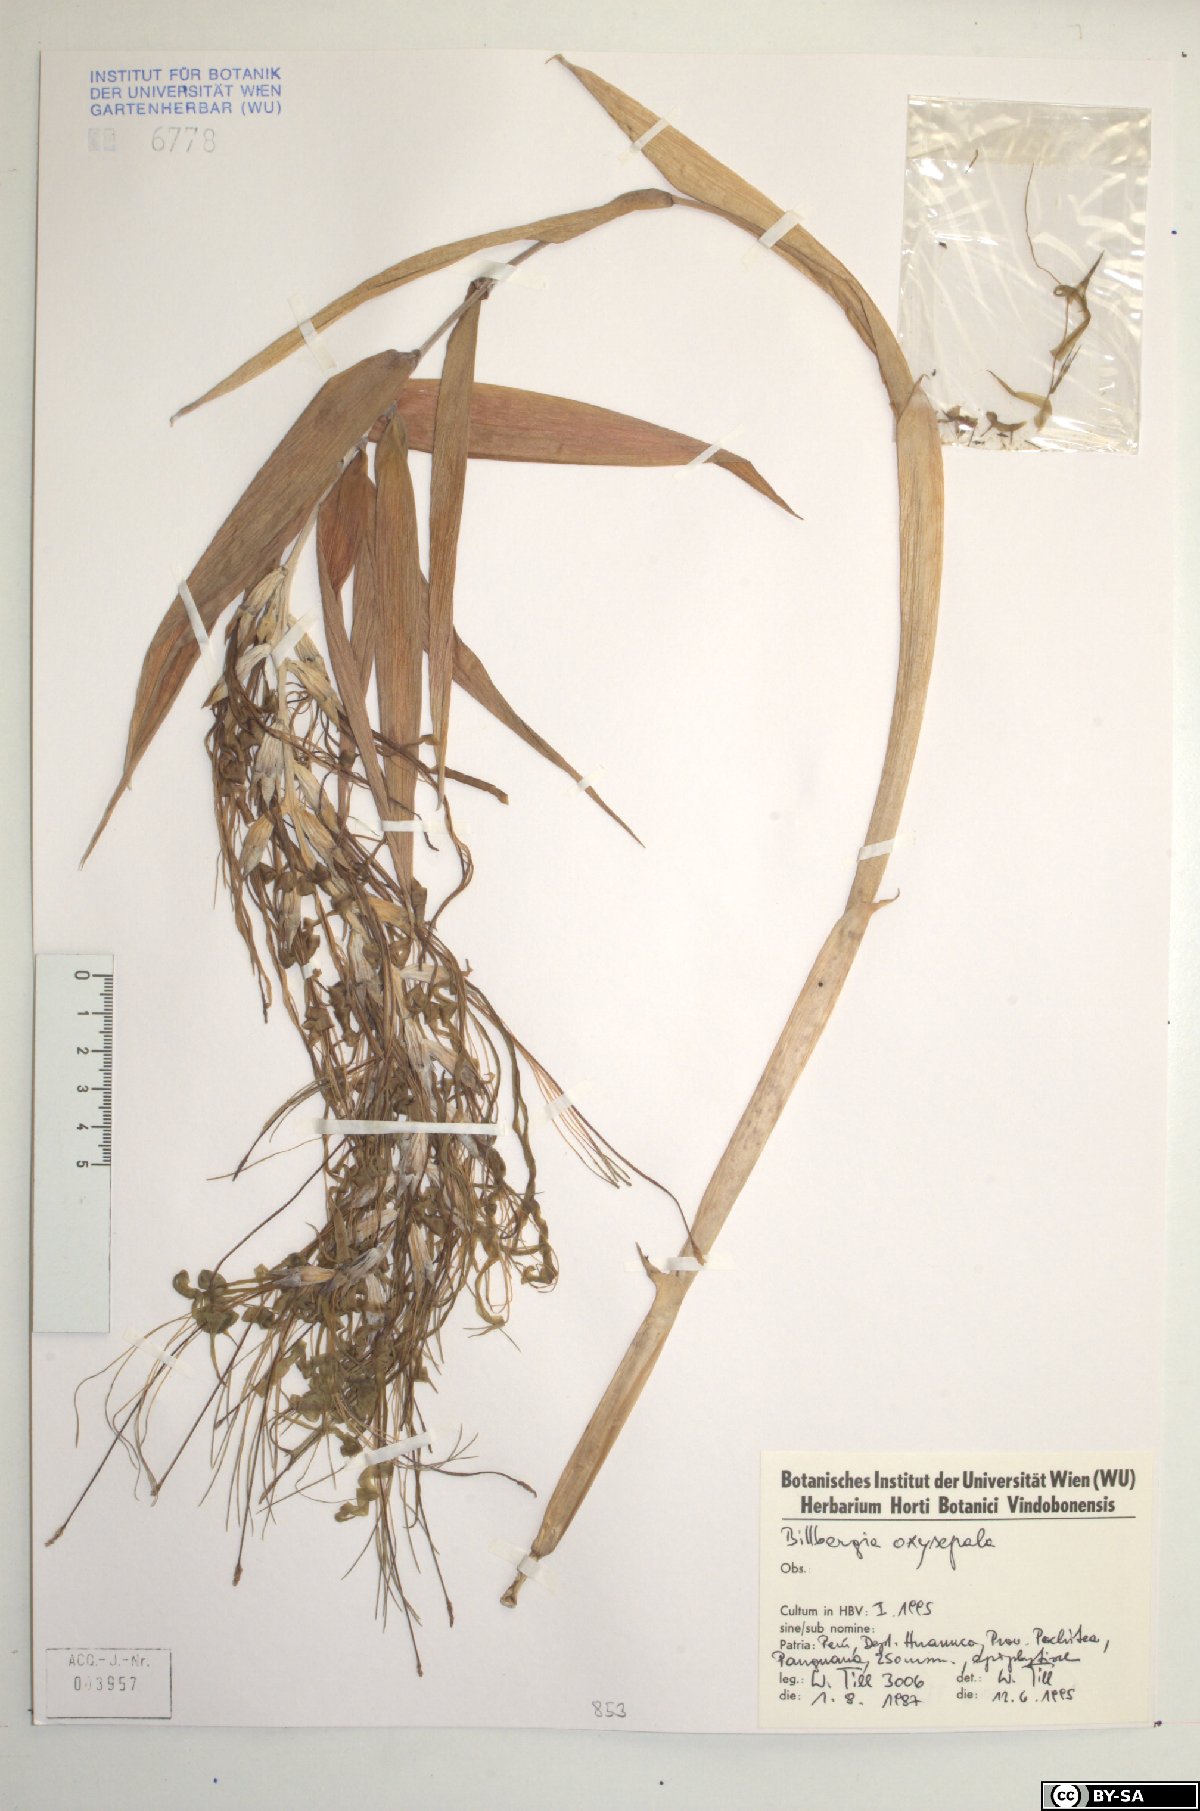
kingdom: Plantae
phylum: Tracheophyta
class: Liliopsida
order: Poales
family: Bromeliaceae
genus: Billbergia
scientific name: Billbergia oxysepala
